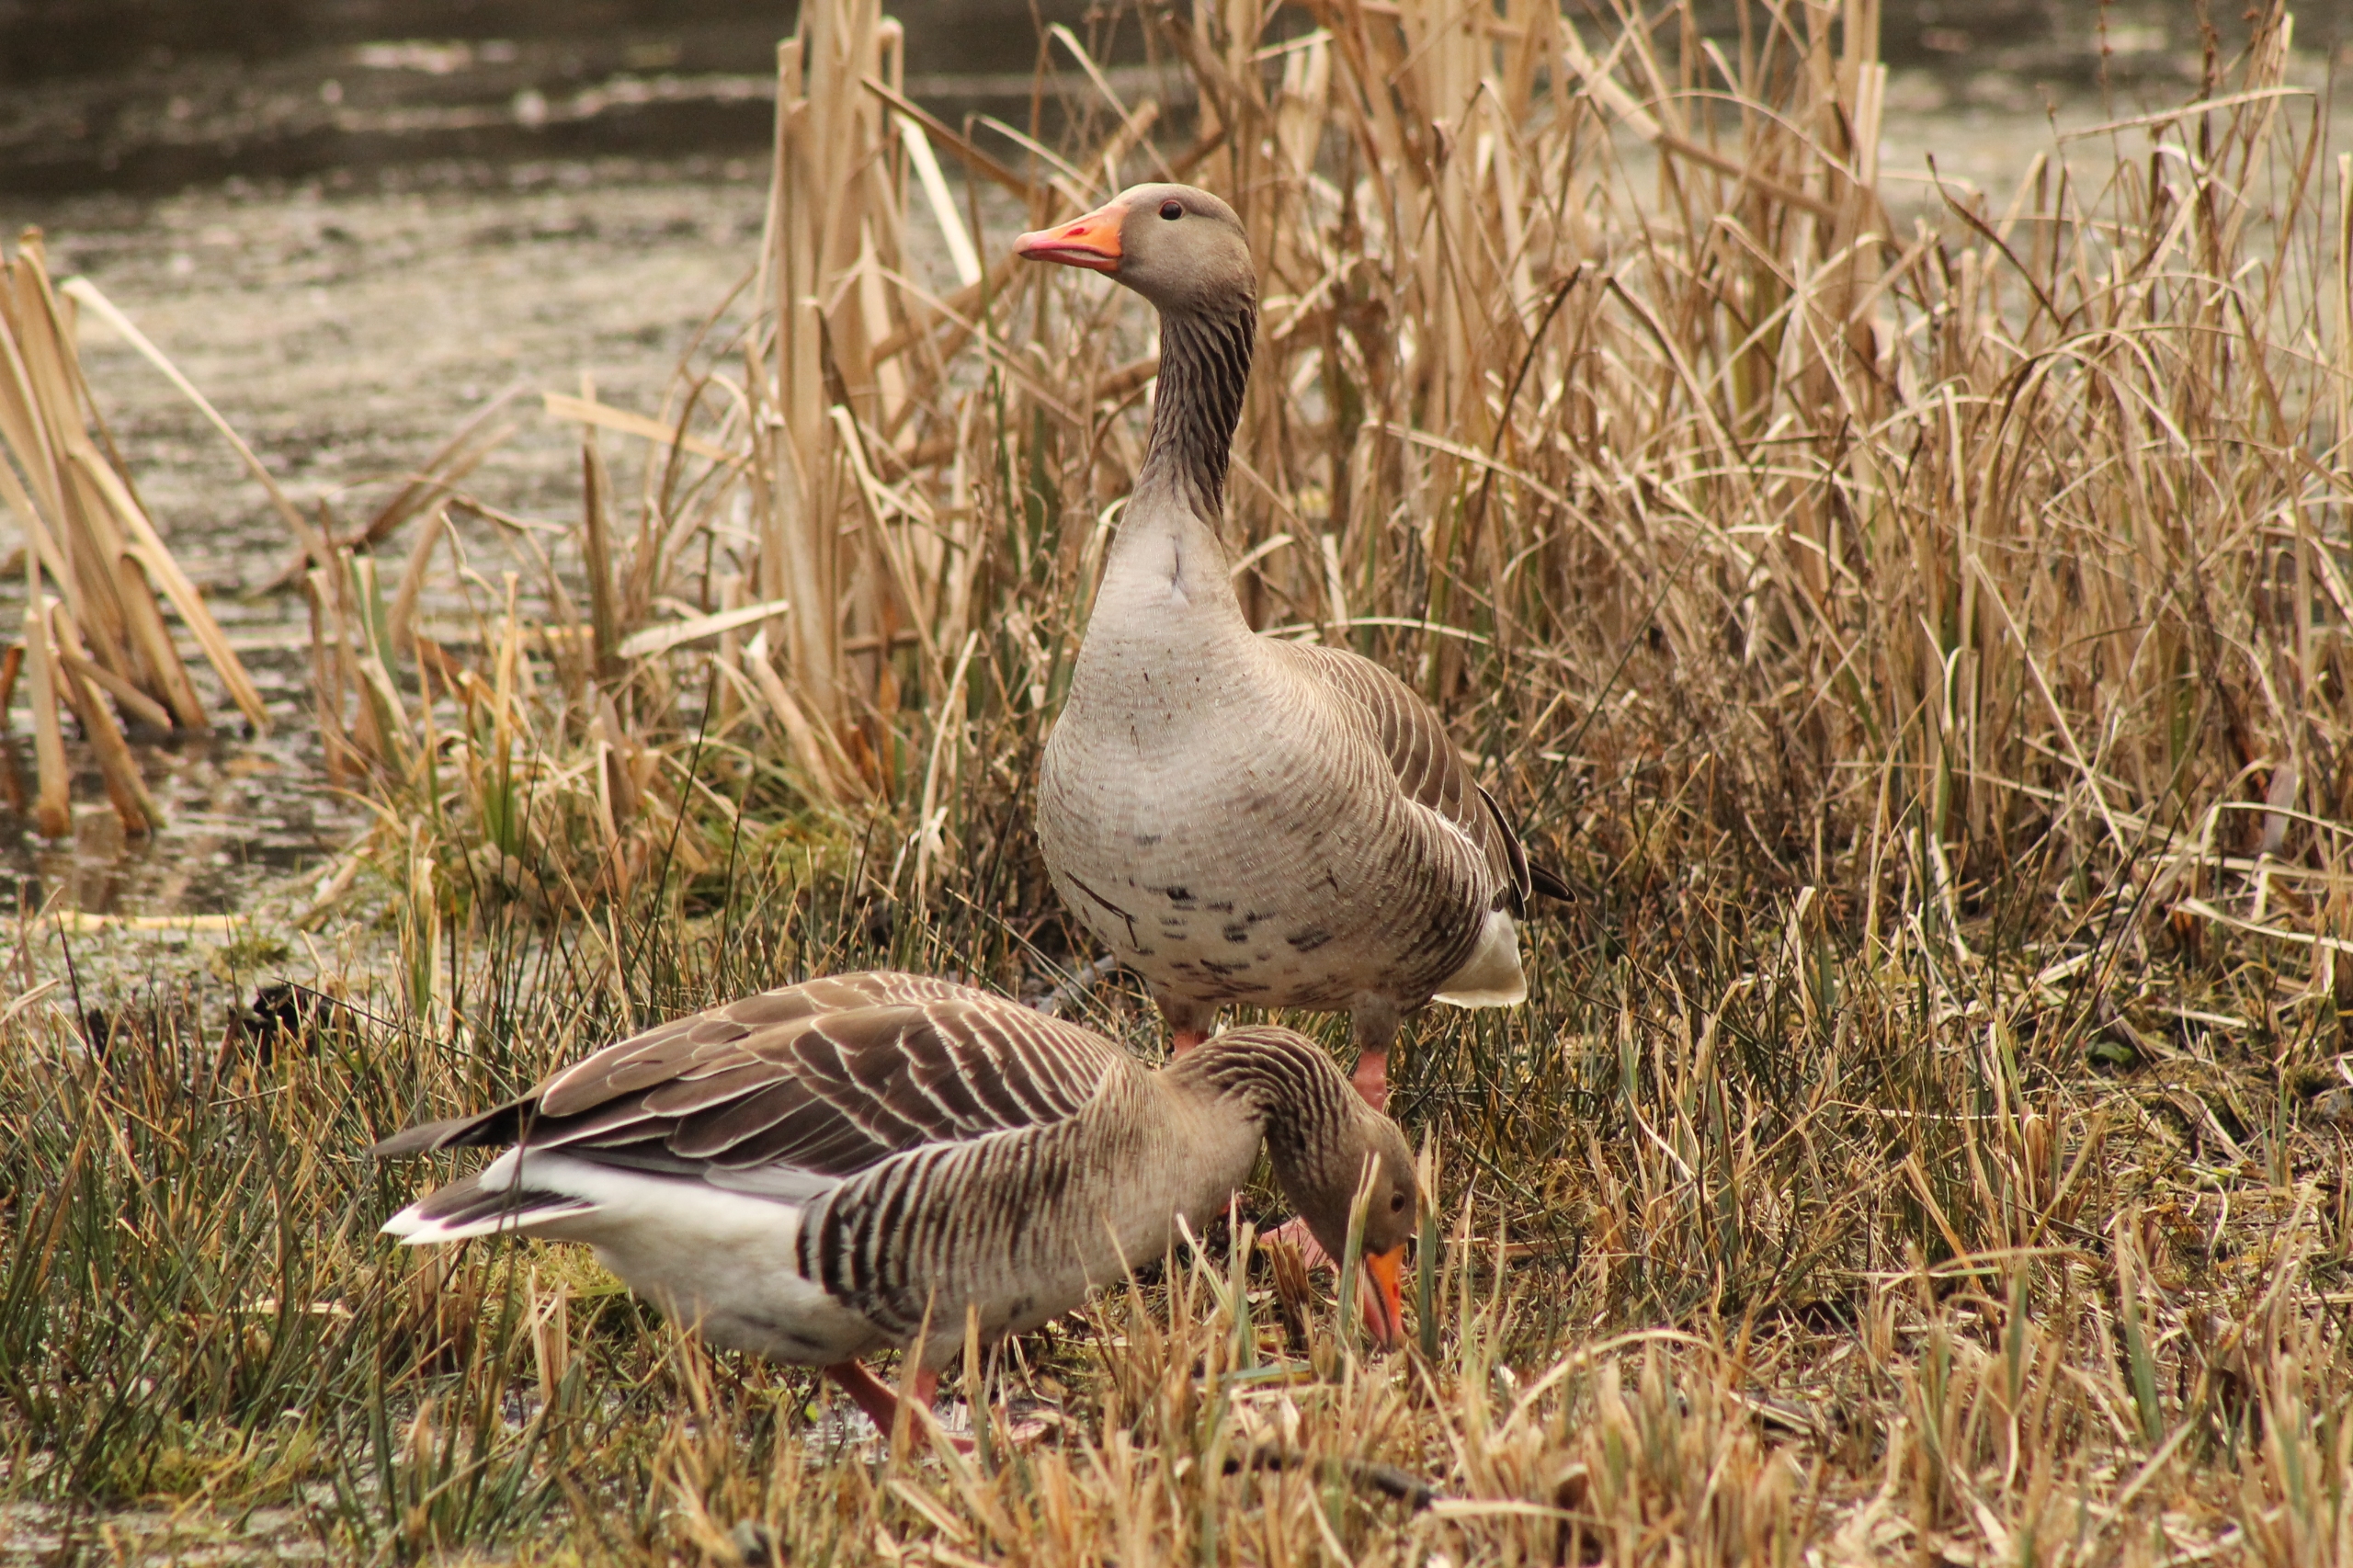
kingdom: Animalia
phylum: Chordata
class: Aves
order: Anseriformes
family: Anatidae
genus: Anser
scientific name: Anser anser
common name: Grågås
